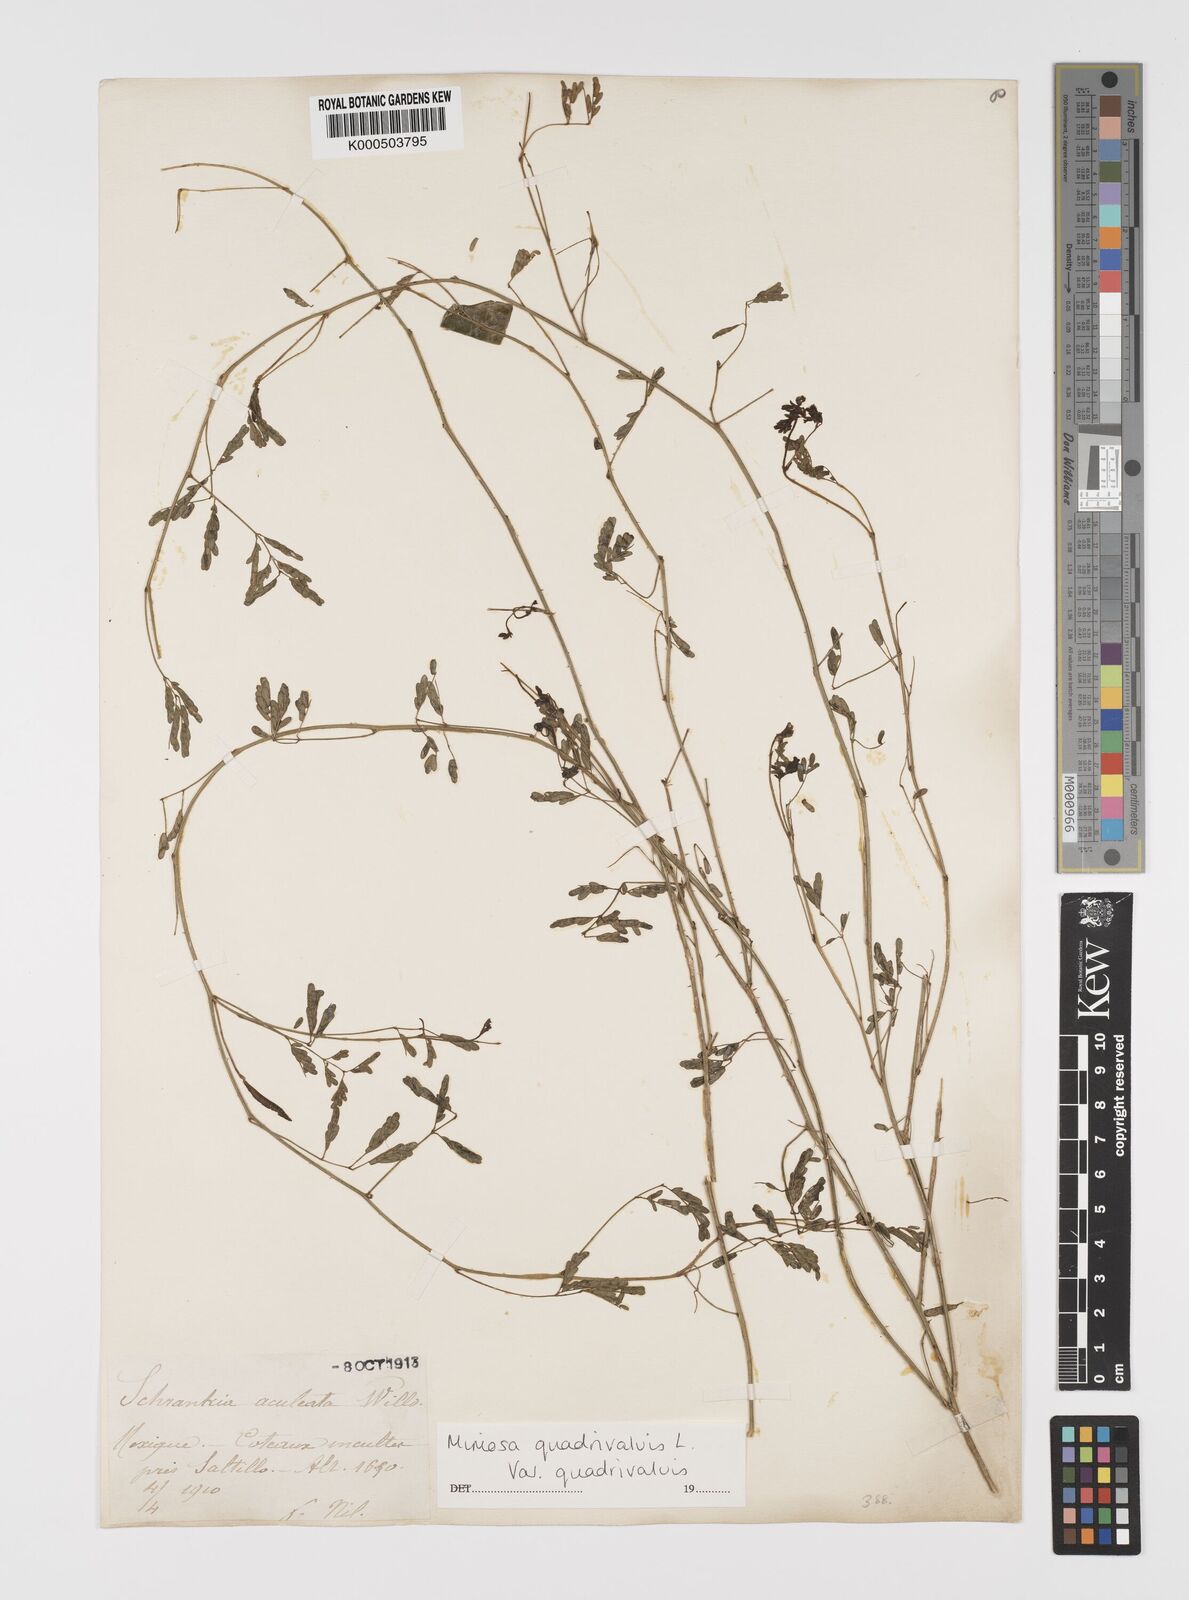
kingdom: Plantae
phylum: Tracheophyta
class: Magnoliopsida
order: Fabales
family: Fabaceae
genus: Mimosa
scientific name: Mimosa quadrivalvis
